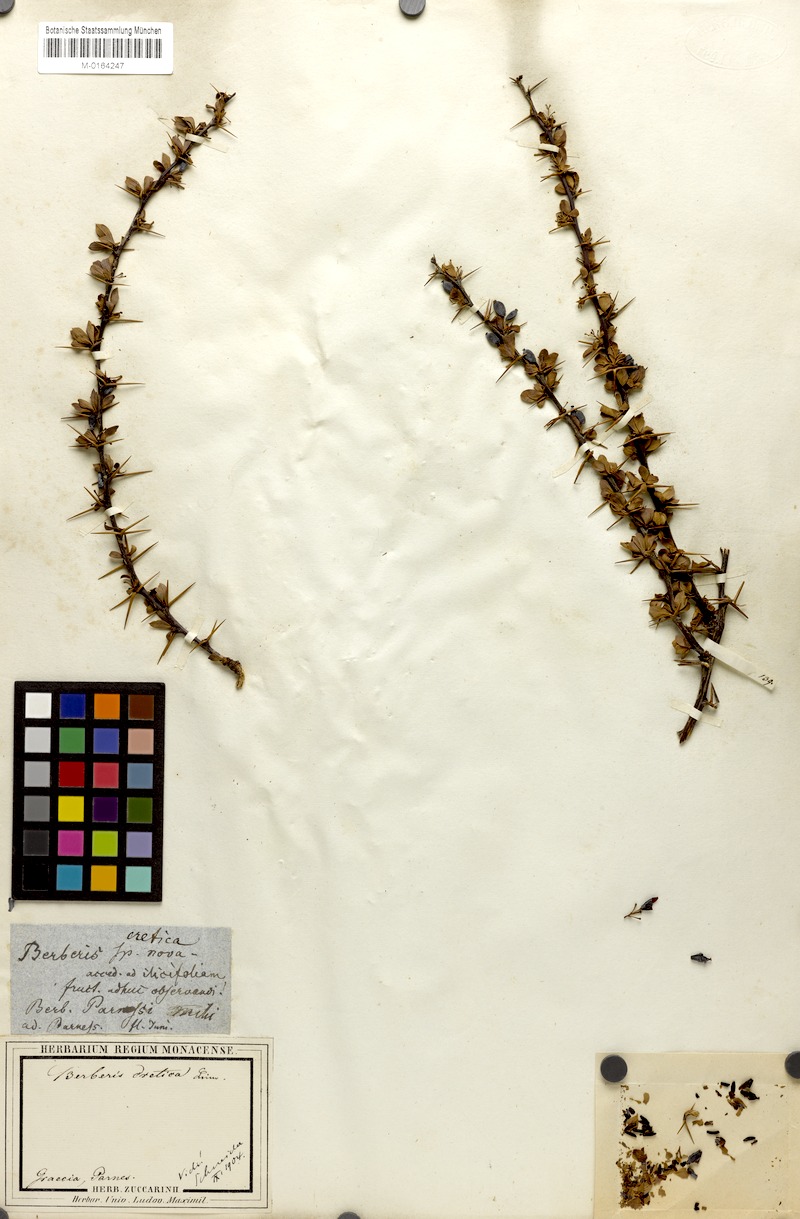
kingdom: Plantae
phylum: Tracheophyta
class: Magnoliopsida
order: Ranunculales
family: Berberidaceae
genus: Berberis
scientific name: Berberis cretica
